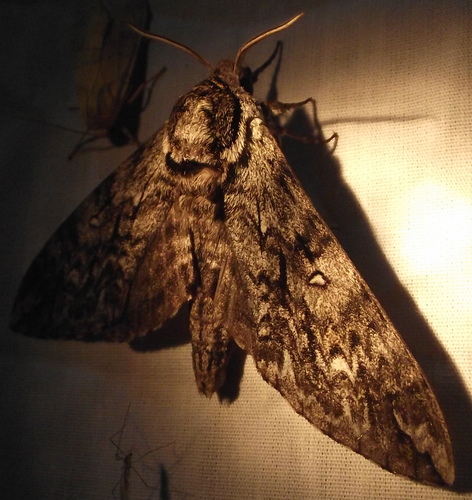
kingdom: Animalia
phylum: Arthropoda
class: Insecta
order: Lepidoptera
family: Sphingidae
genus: Ceratomia
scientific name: Ceratomia undulosa
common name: Waved sphinx
